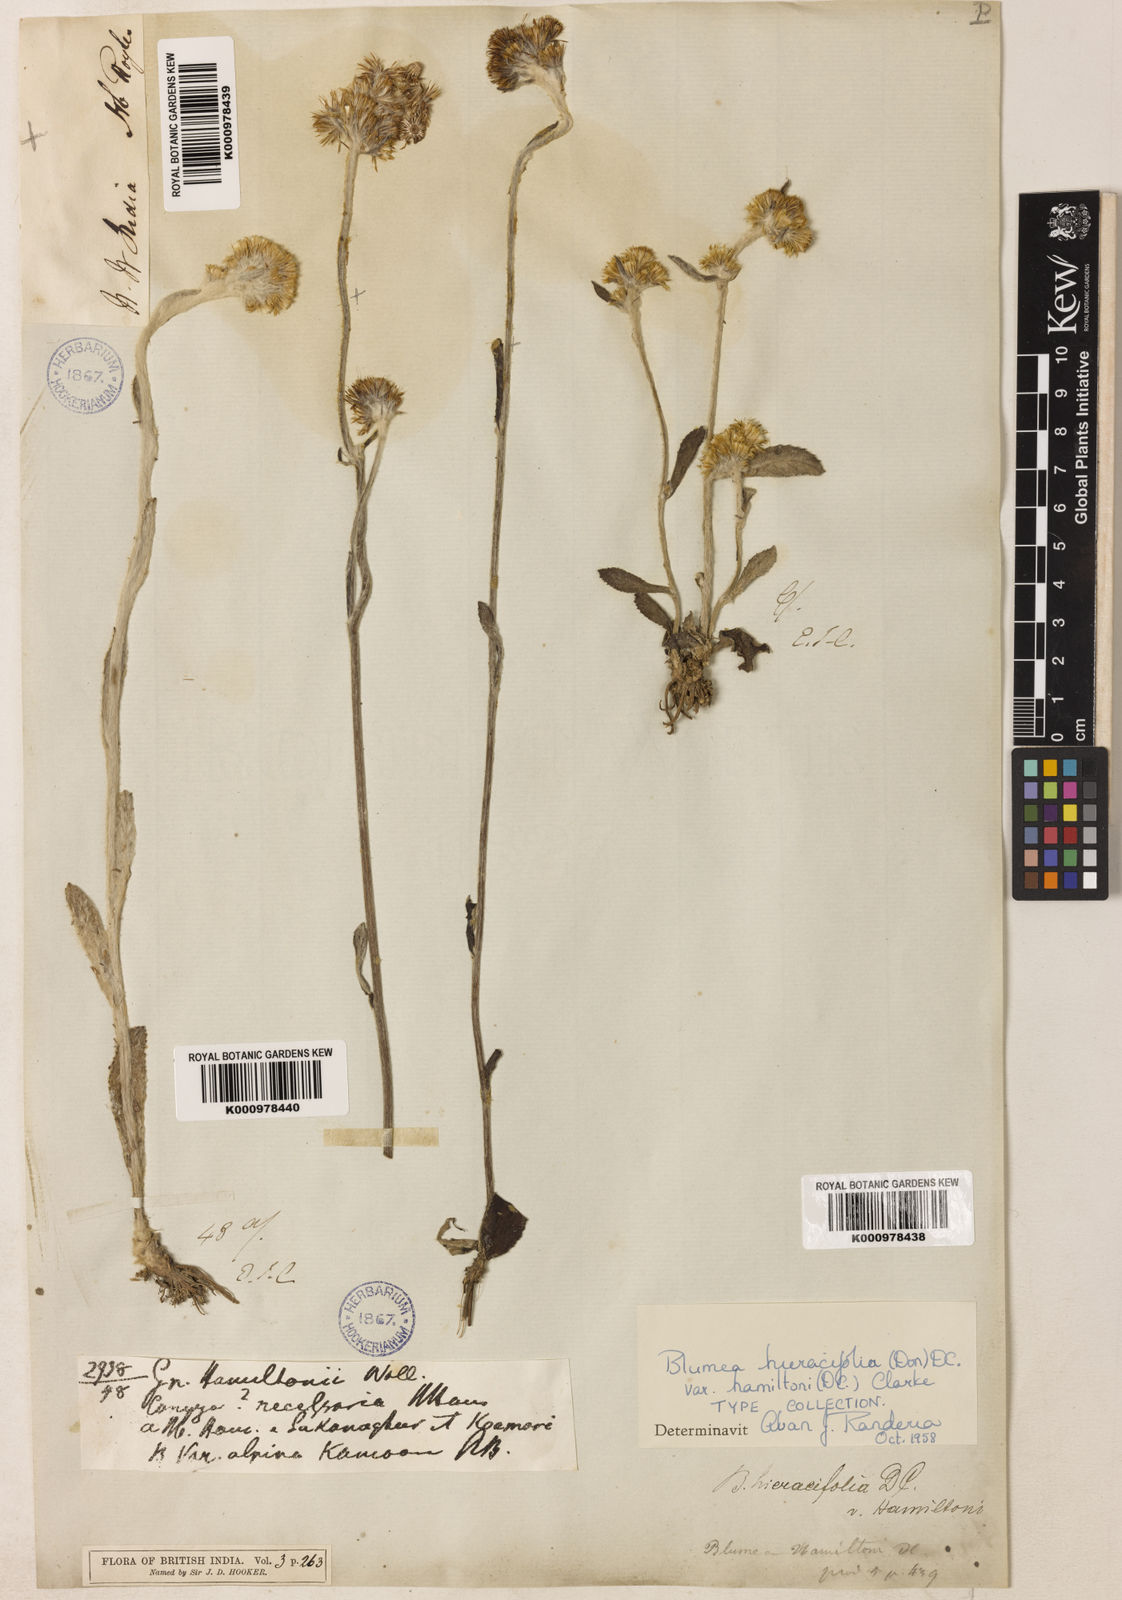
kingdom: Plantae
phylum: Tracheophyta
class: Magnoliopsida
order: Asterales
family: Asteraceae
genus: Blumea
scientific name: Blumea hieraciifolia
